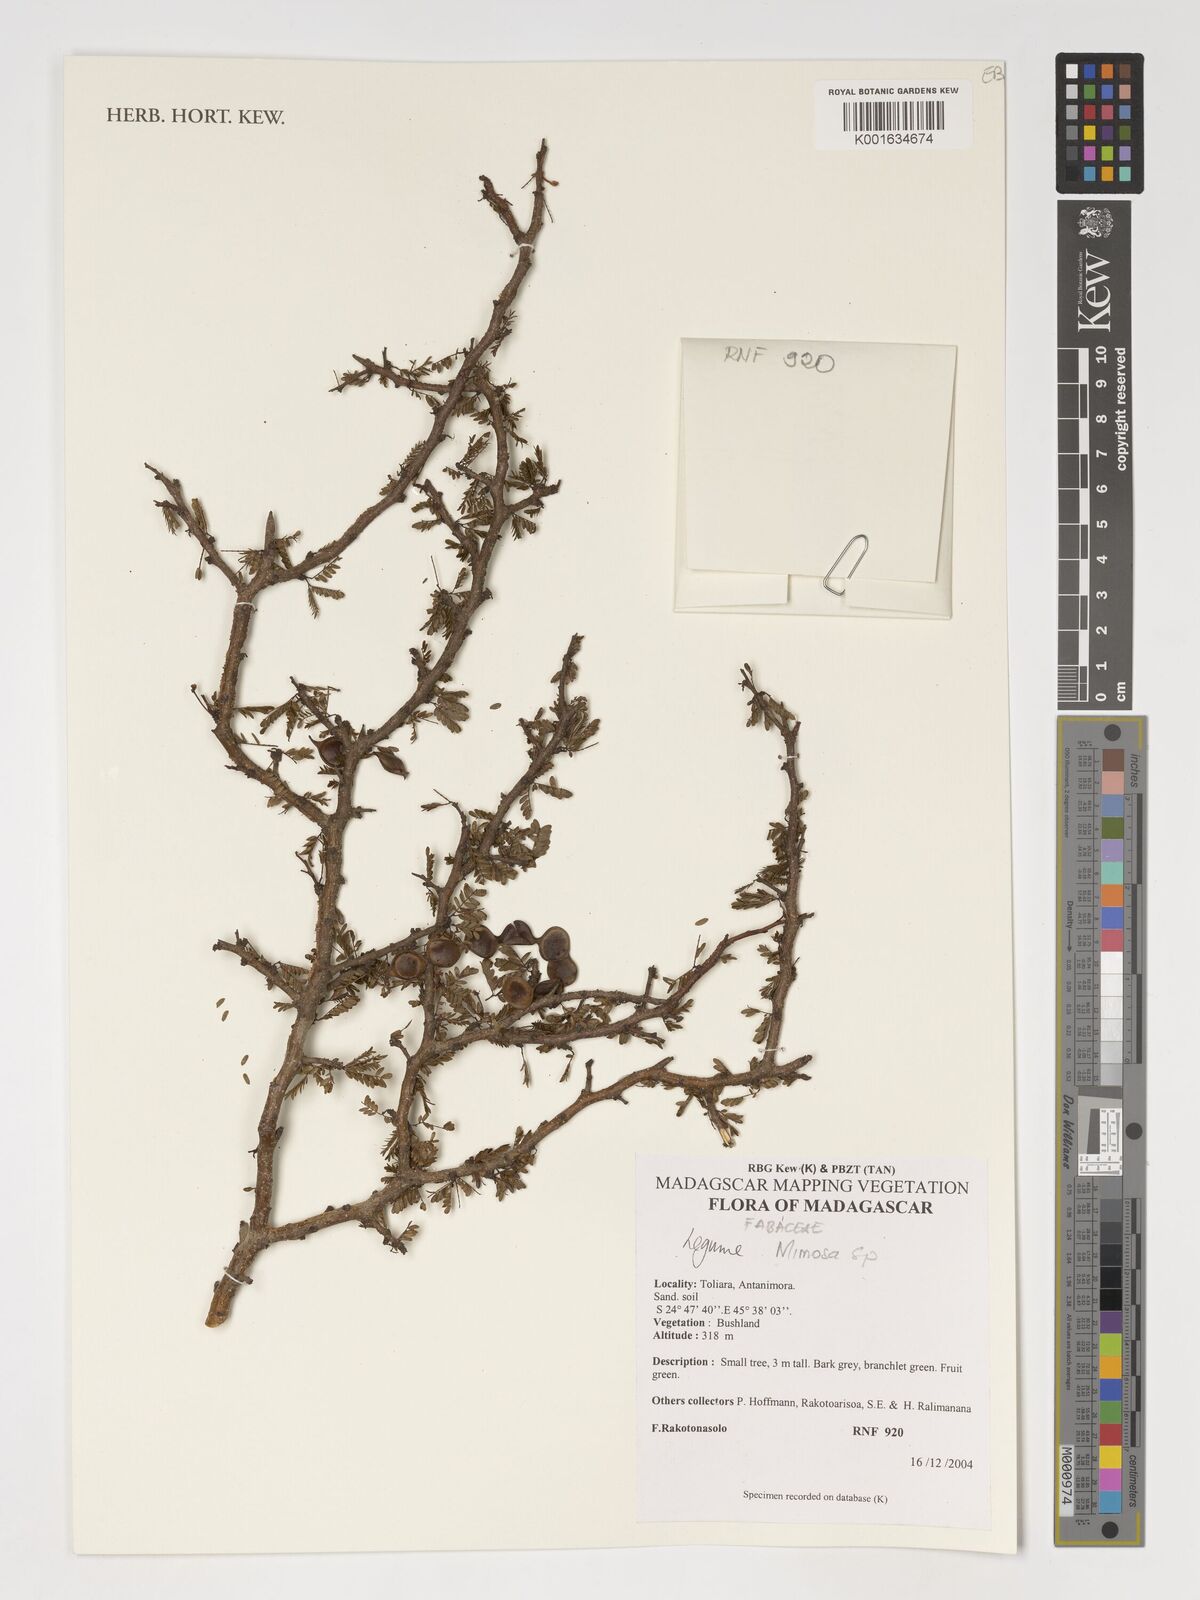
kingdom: Plantae
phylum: Tracheophyta
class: Magnoliopsida
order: Fabales
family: Fabaceae
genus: Mimosa
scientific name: Mimosa
